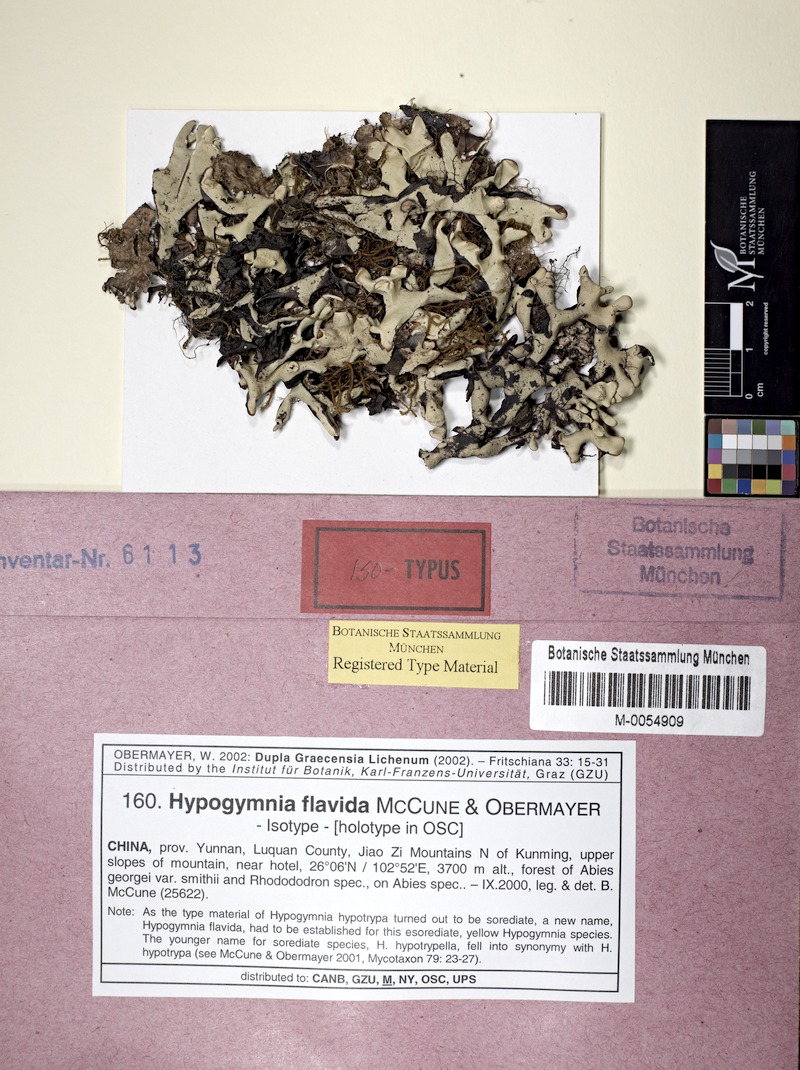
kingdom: Fungi
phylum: Ascomycota
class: Lecanoromycetes
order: Lecanorales
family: Parmeliaceae
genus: Hypogymnia
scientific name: Hypogymnia flavida
